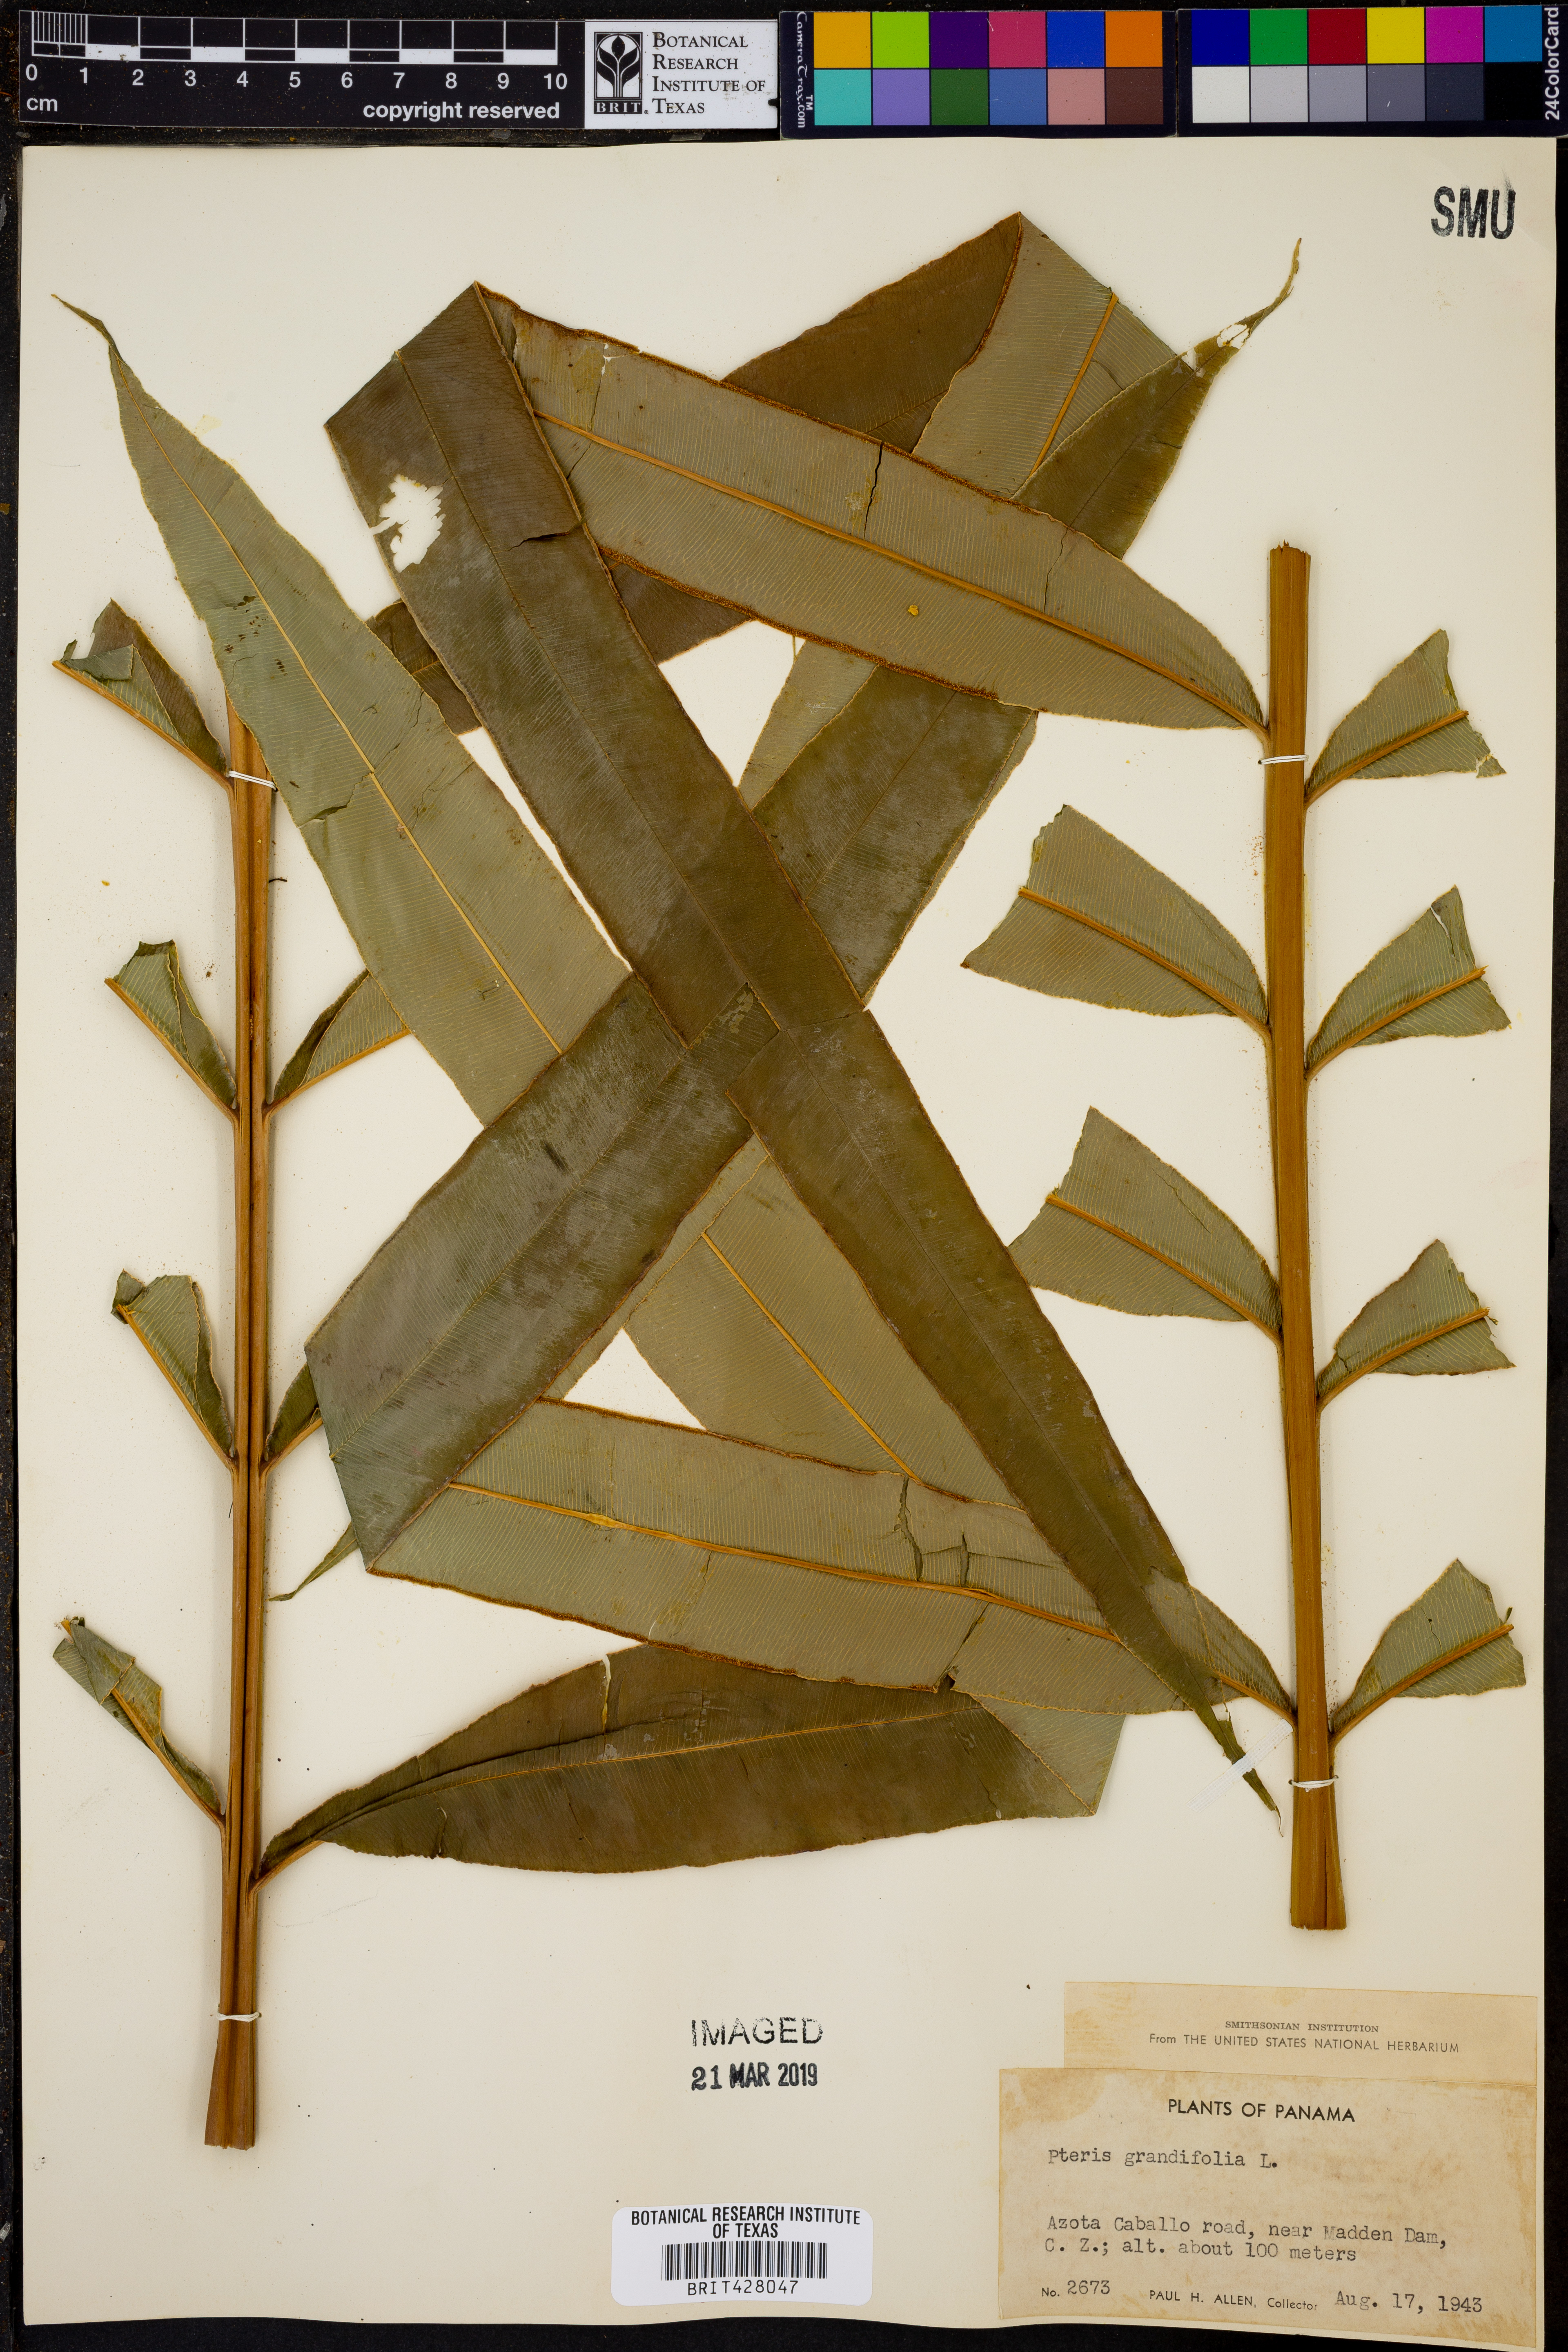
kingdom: Plantae
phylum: Tracheophyta
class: Polypodiopsida
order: Polypodiales
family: Pteridaceae
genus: Pteris
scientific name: Pteris grandifolia
